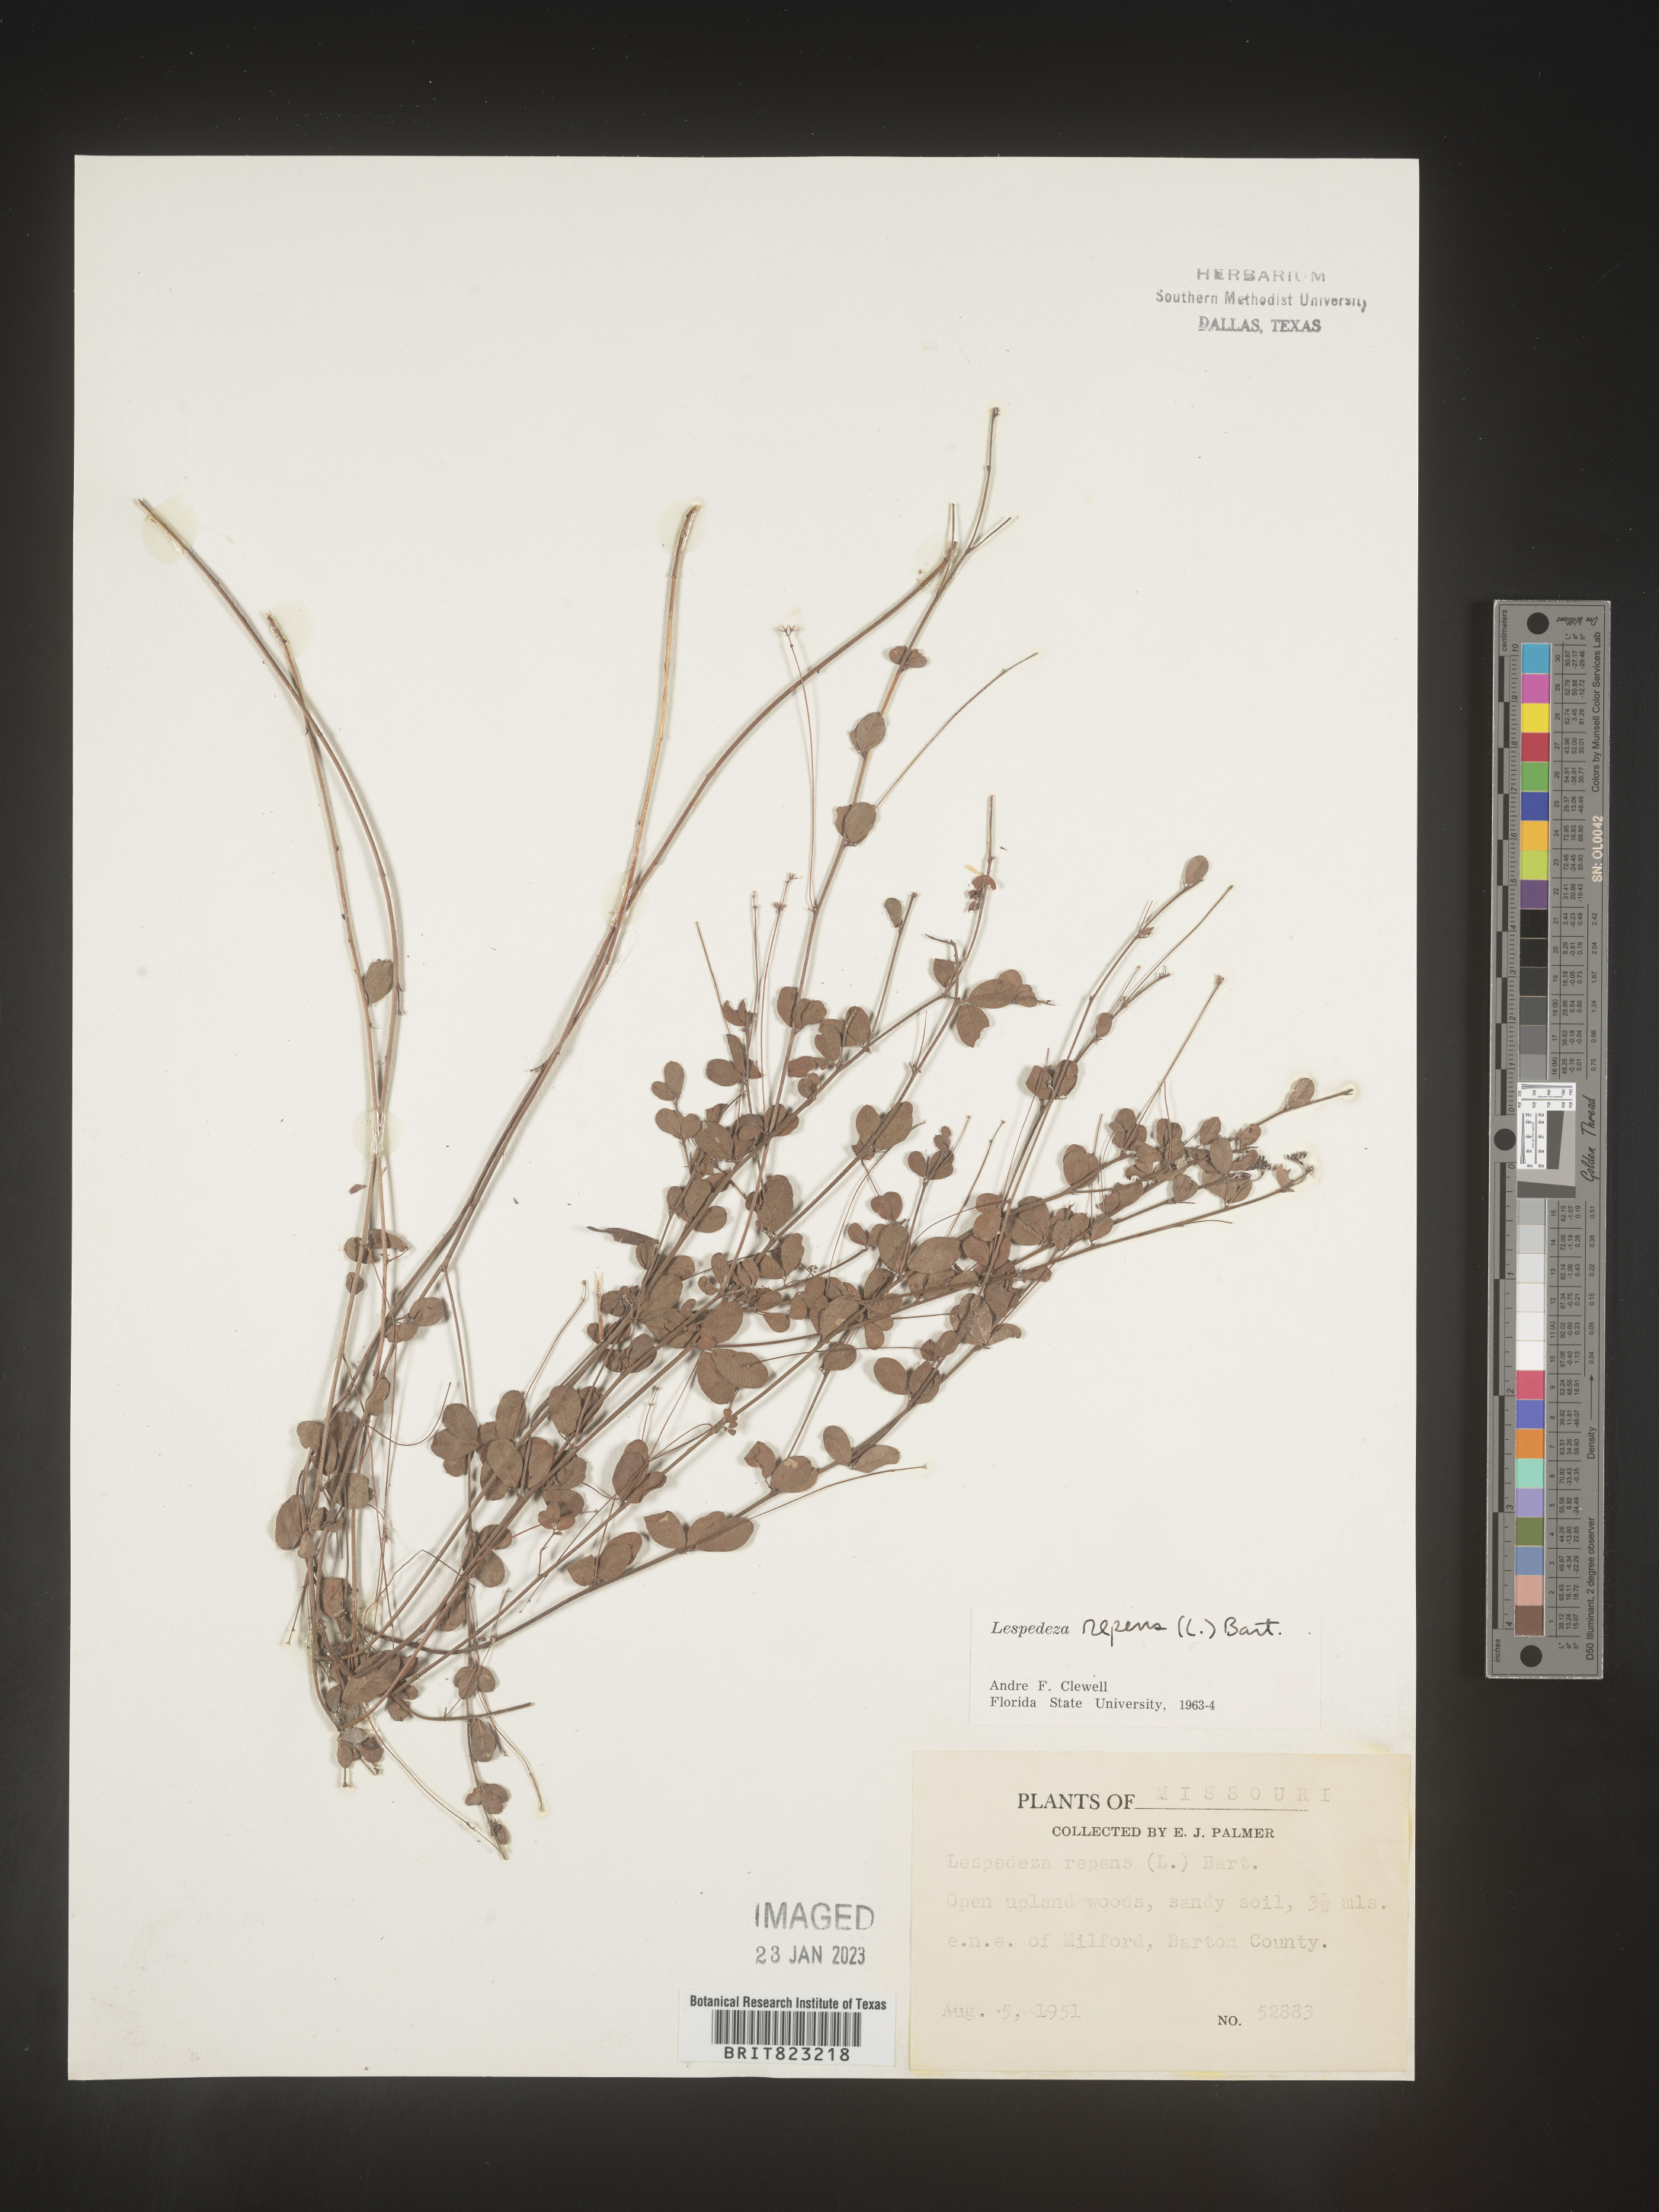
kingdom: Plantae
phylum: Tracheophyta
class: Magnoliopsida
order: Fabales
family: Fabaceae
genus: Lespedeza
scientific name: Lespedeza repens
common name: Creeping bush-clover
